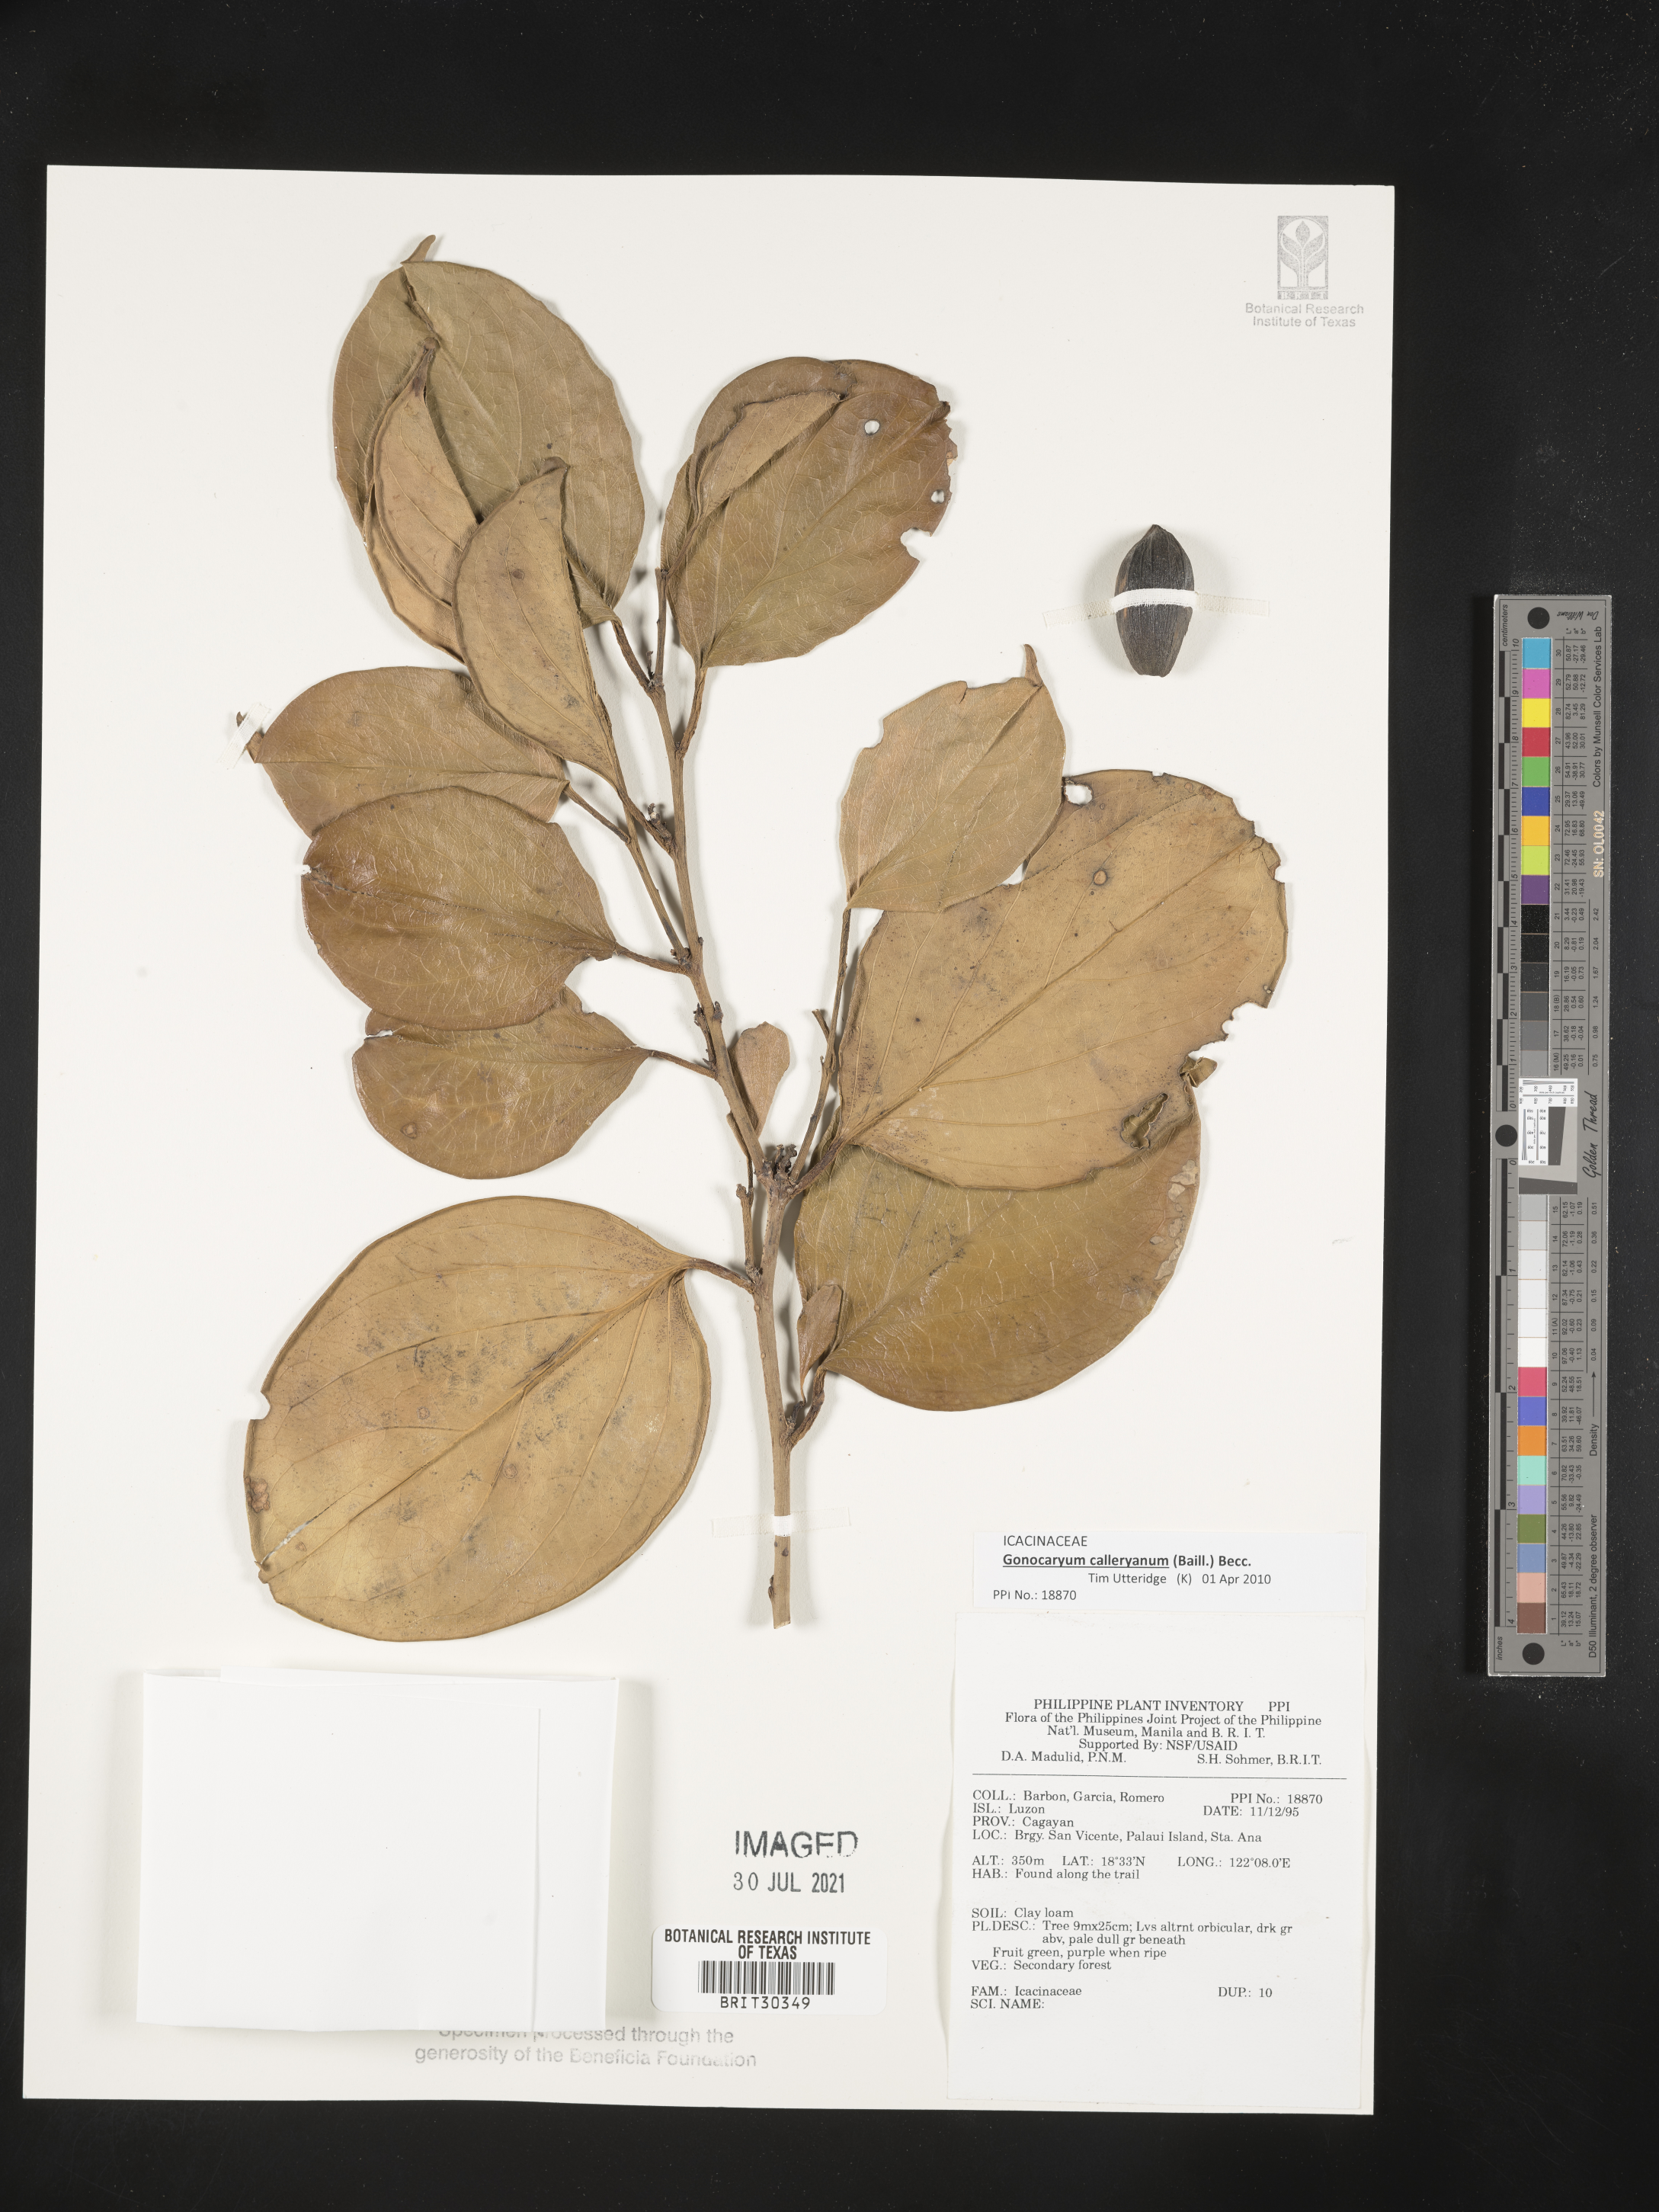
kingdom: Plantae
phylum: Tracheophyta
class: Magnoliopsida
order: Icacinales
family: Icacinaceae
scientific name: Icacinaceae
